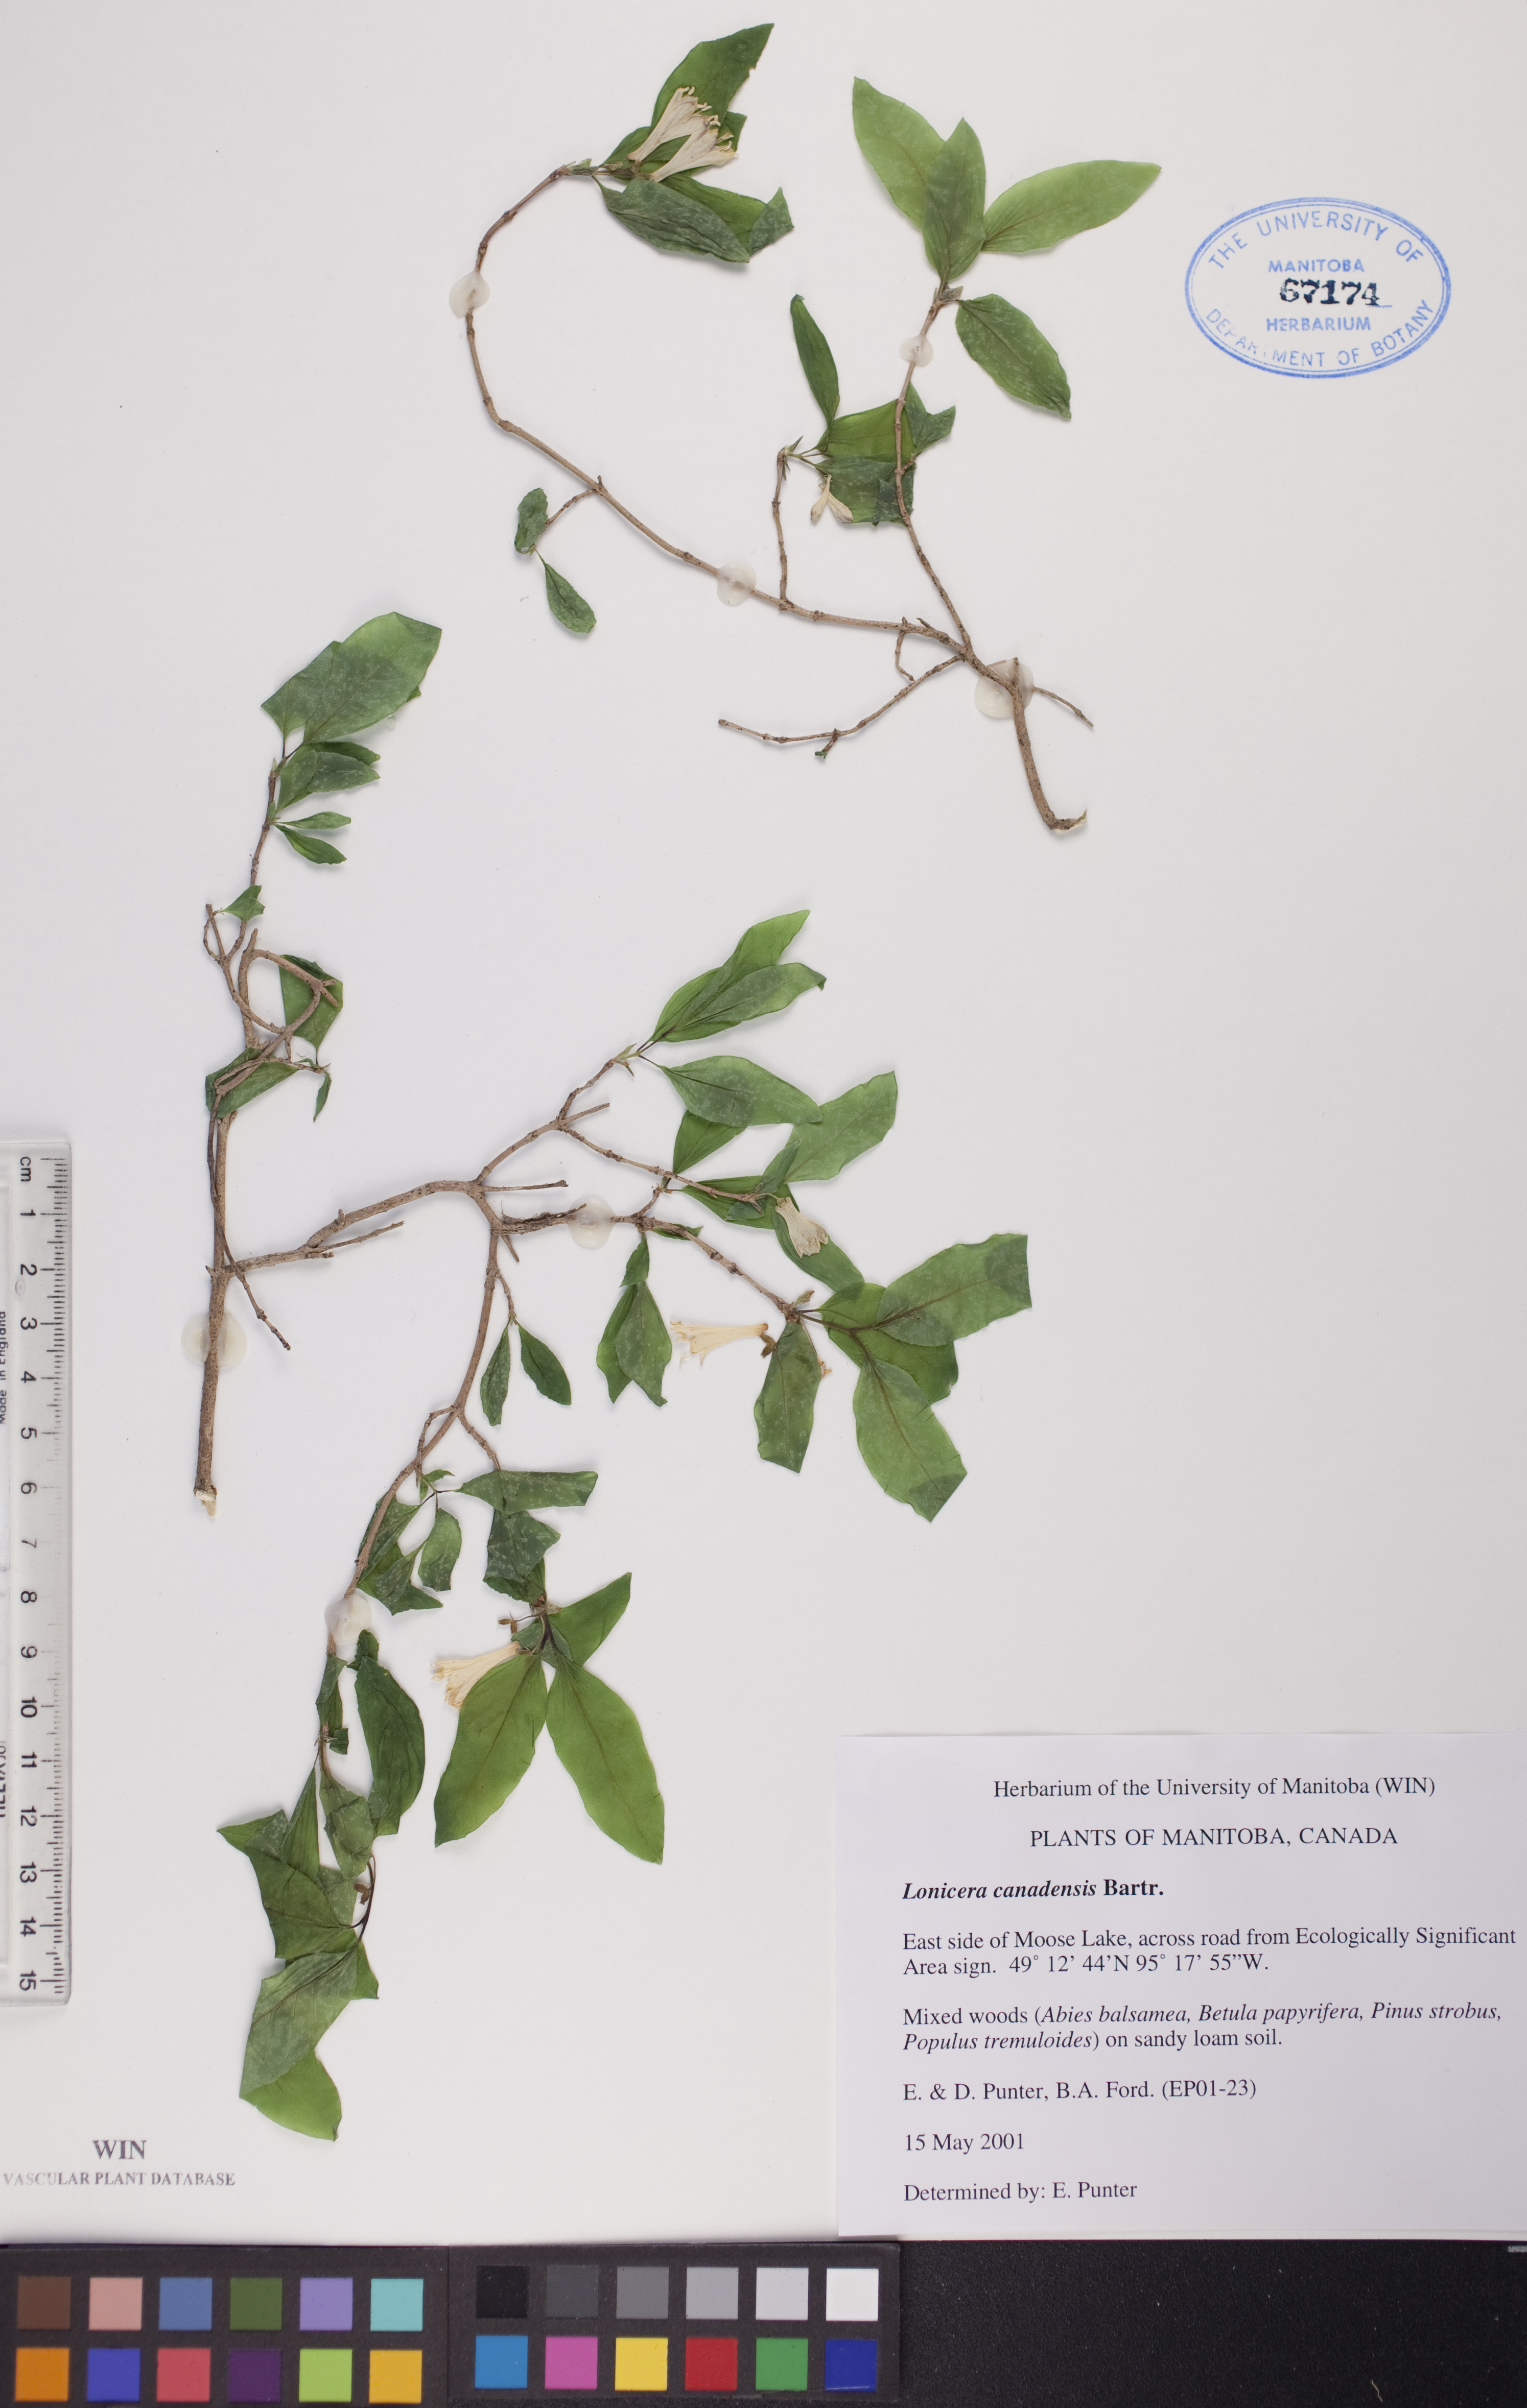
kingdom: Plantae
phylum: Tracheophyta
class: Magnoliopsida
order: Dipsacales
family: Caprifoliaceae
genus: Lonicera
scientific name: Lonicera canadensis
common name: American fly-honeysuckle
